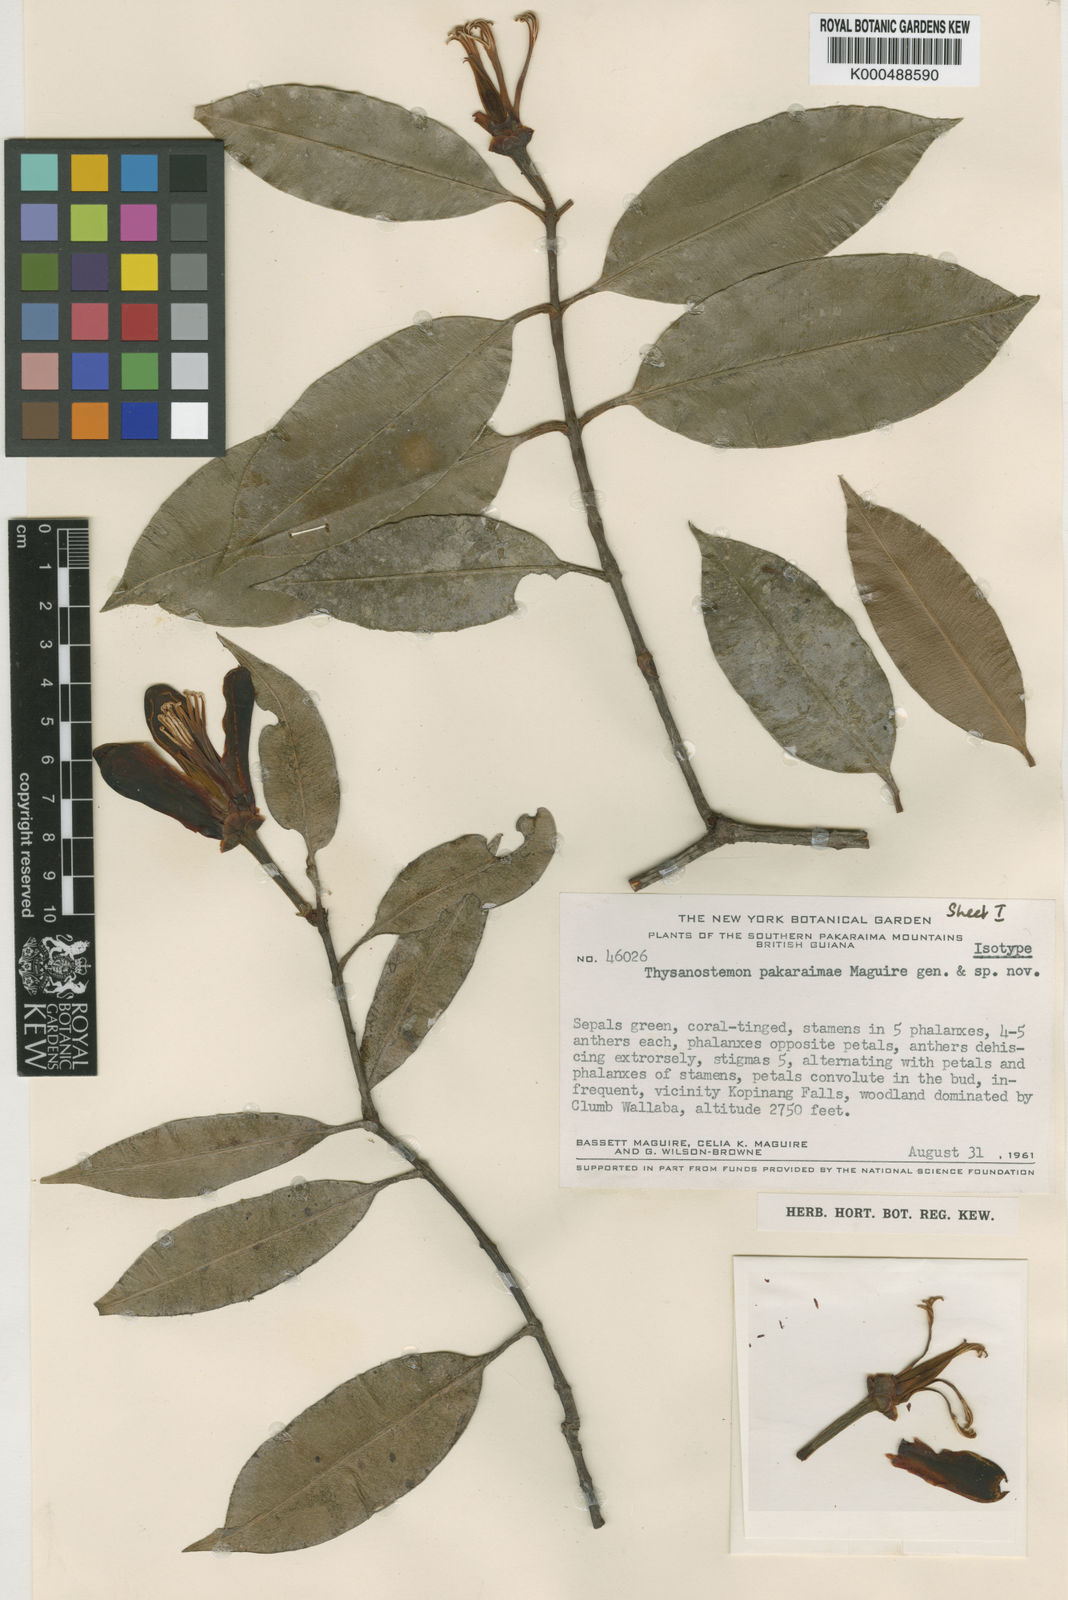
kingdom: Plantae
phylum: Tracheophyta
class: Magnoliopsida
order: Malpighiales
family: Clusiaceae
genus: Thysanostemon
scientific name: Thysanostemon pakaraimae
